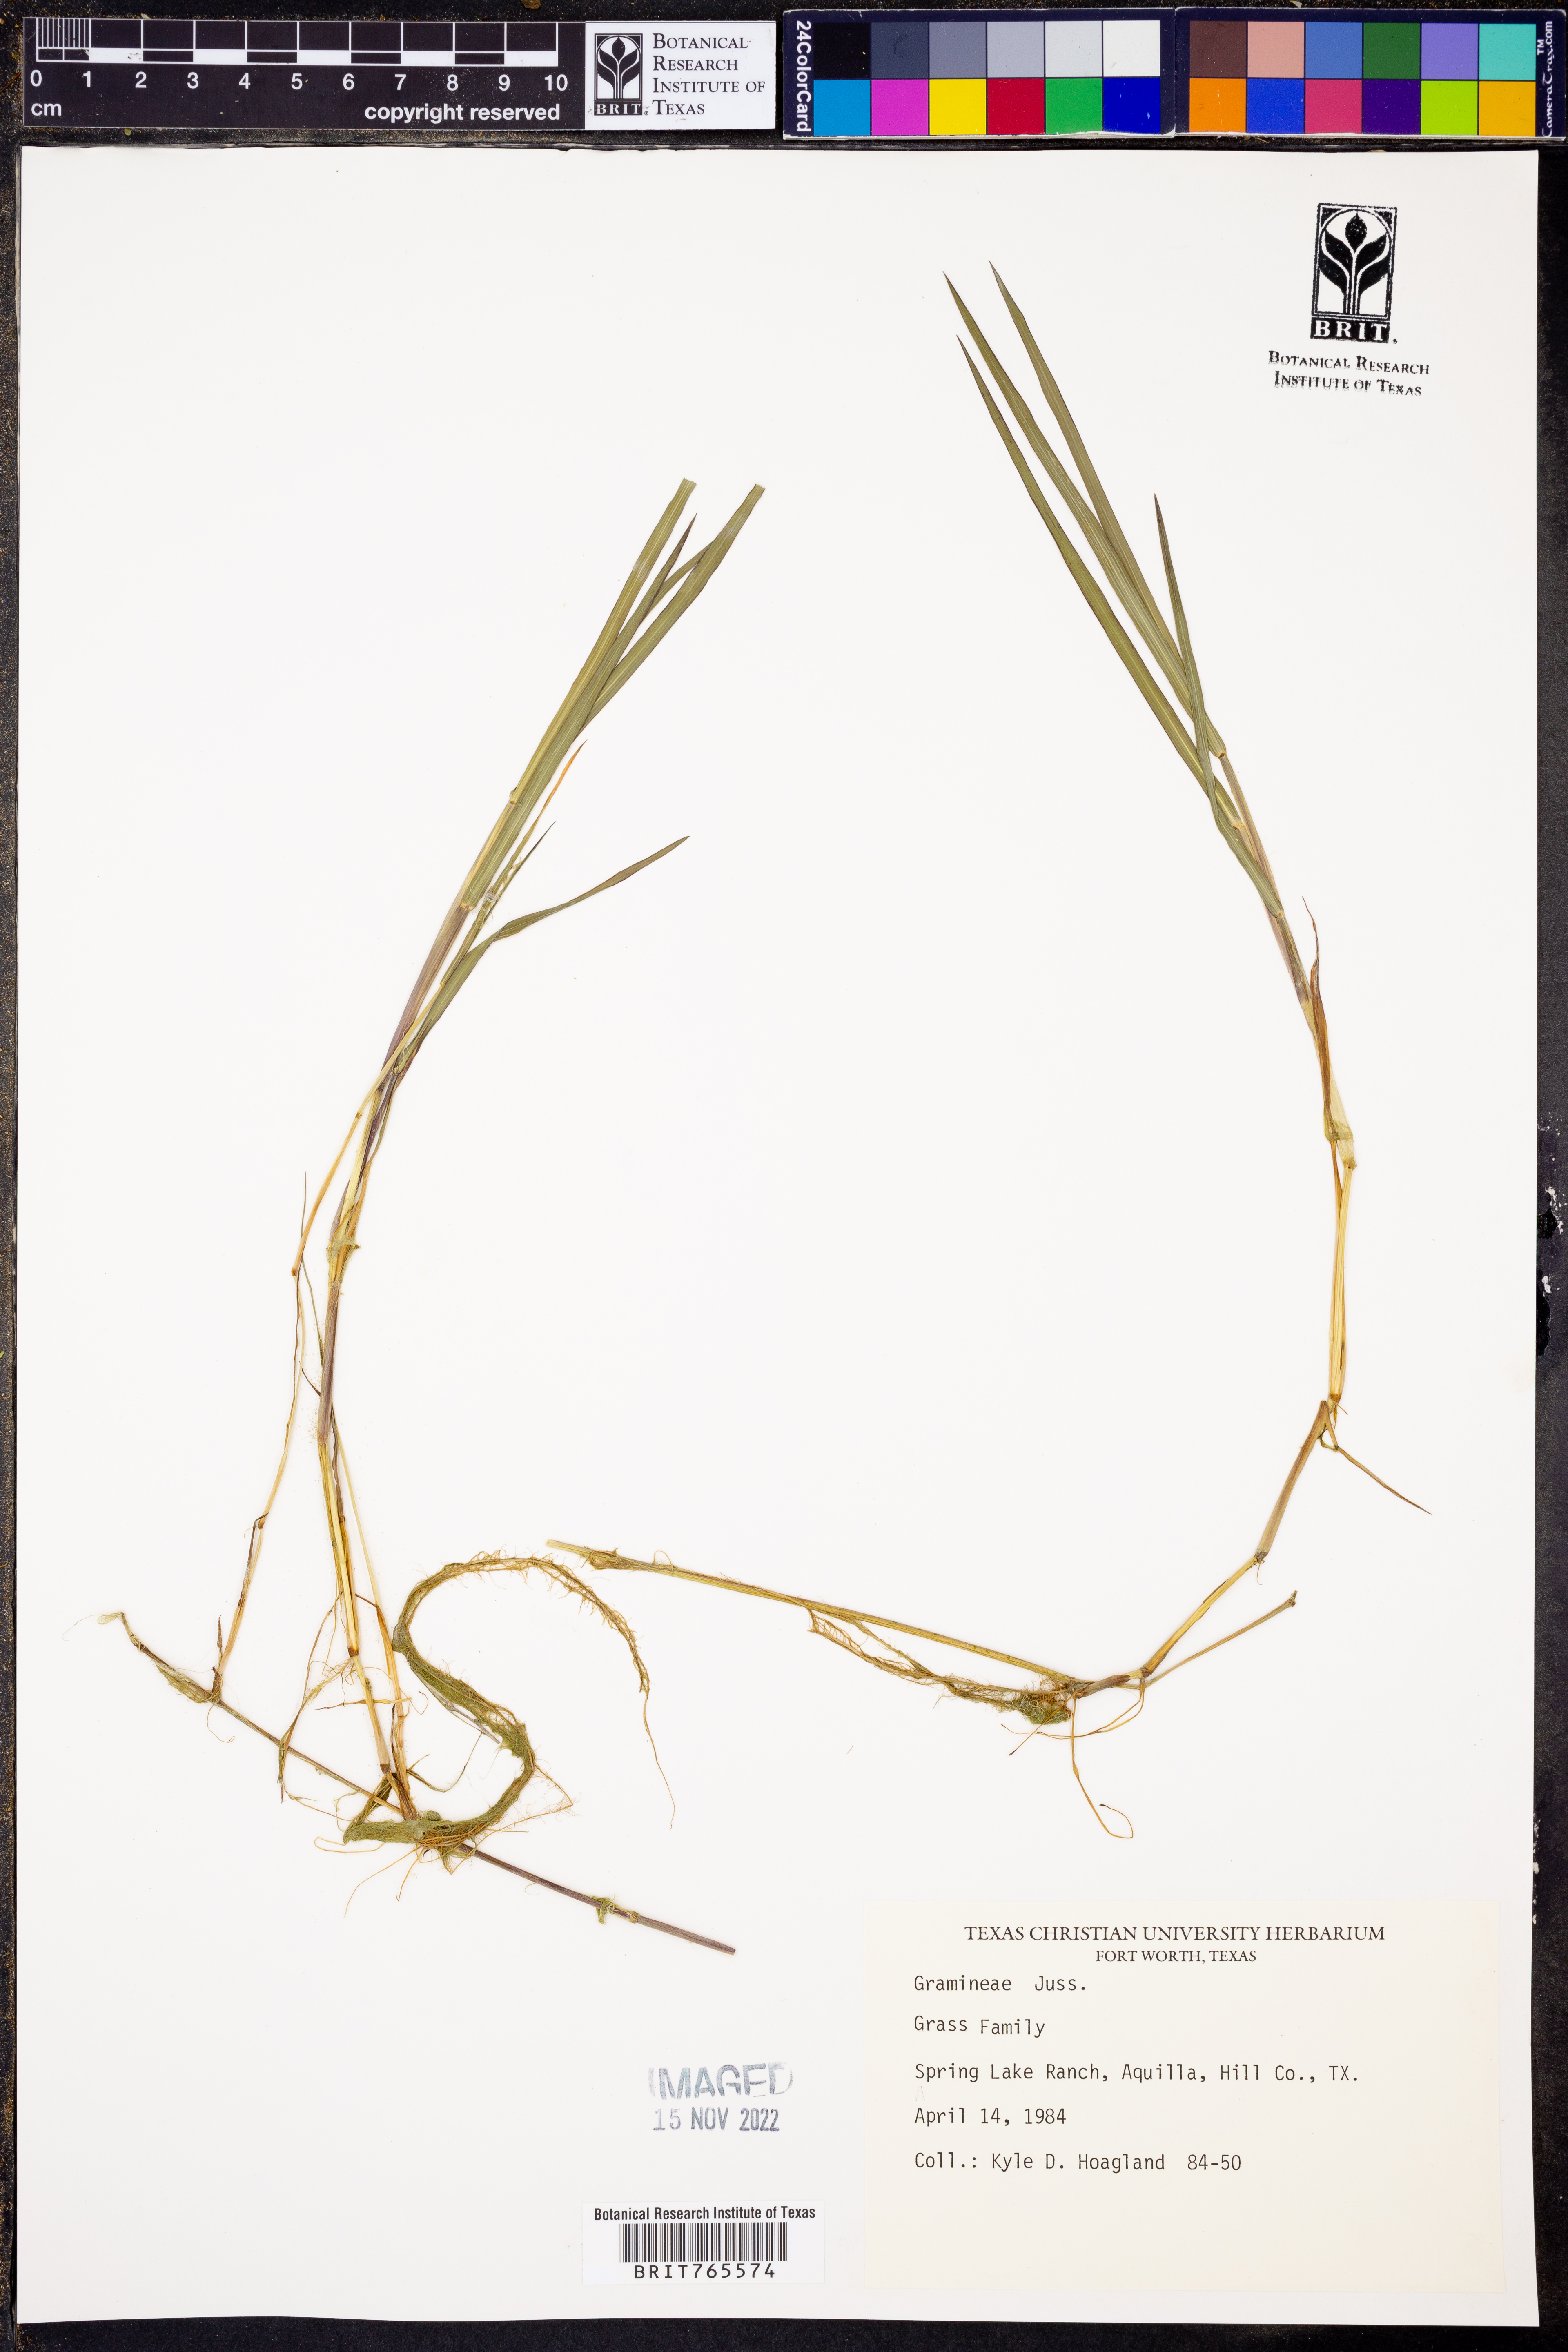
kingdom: Plantae
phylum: Tracheophyta
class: Liliopsida
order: Poales
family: Poaceae
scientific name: Poaceae
